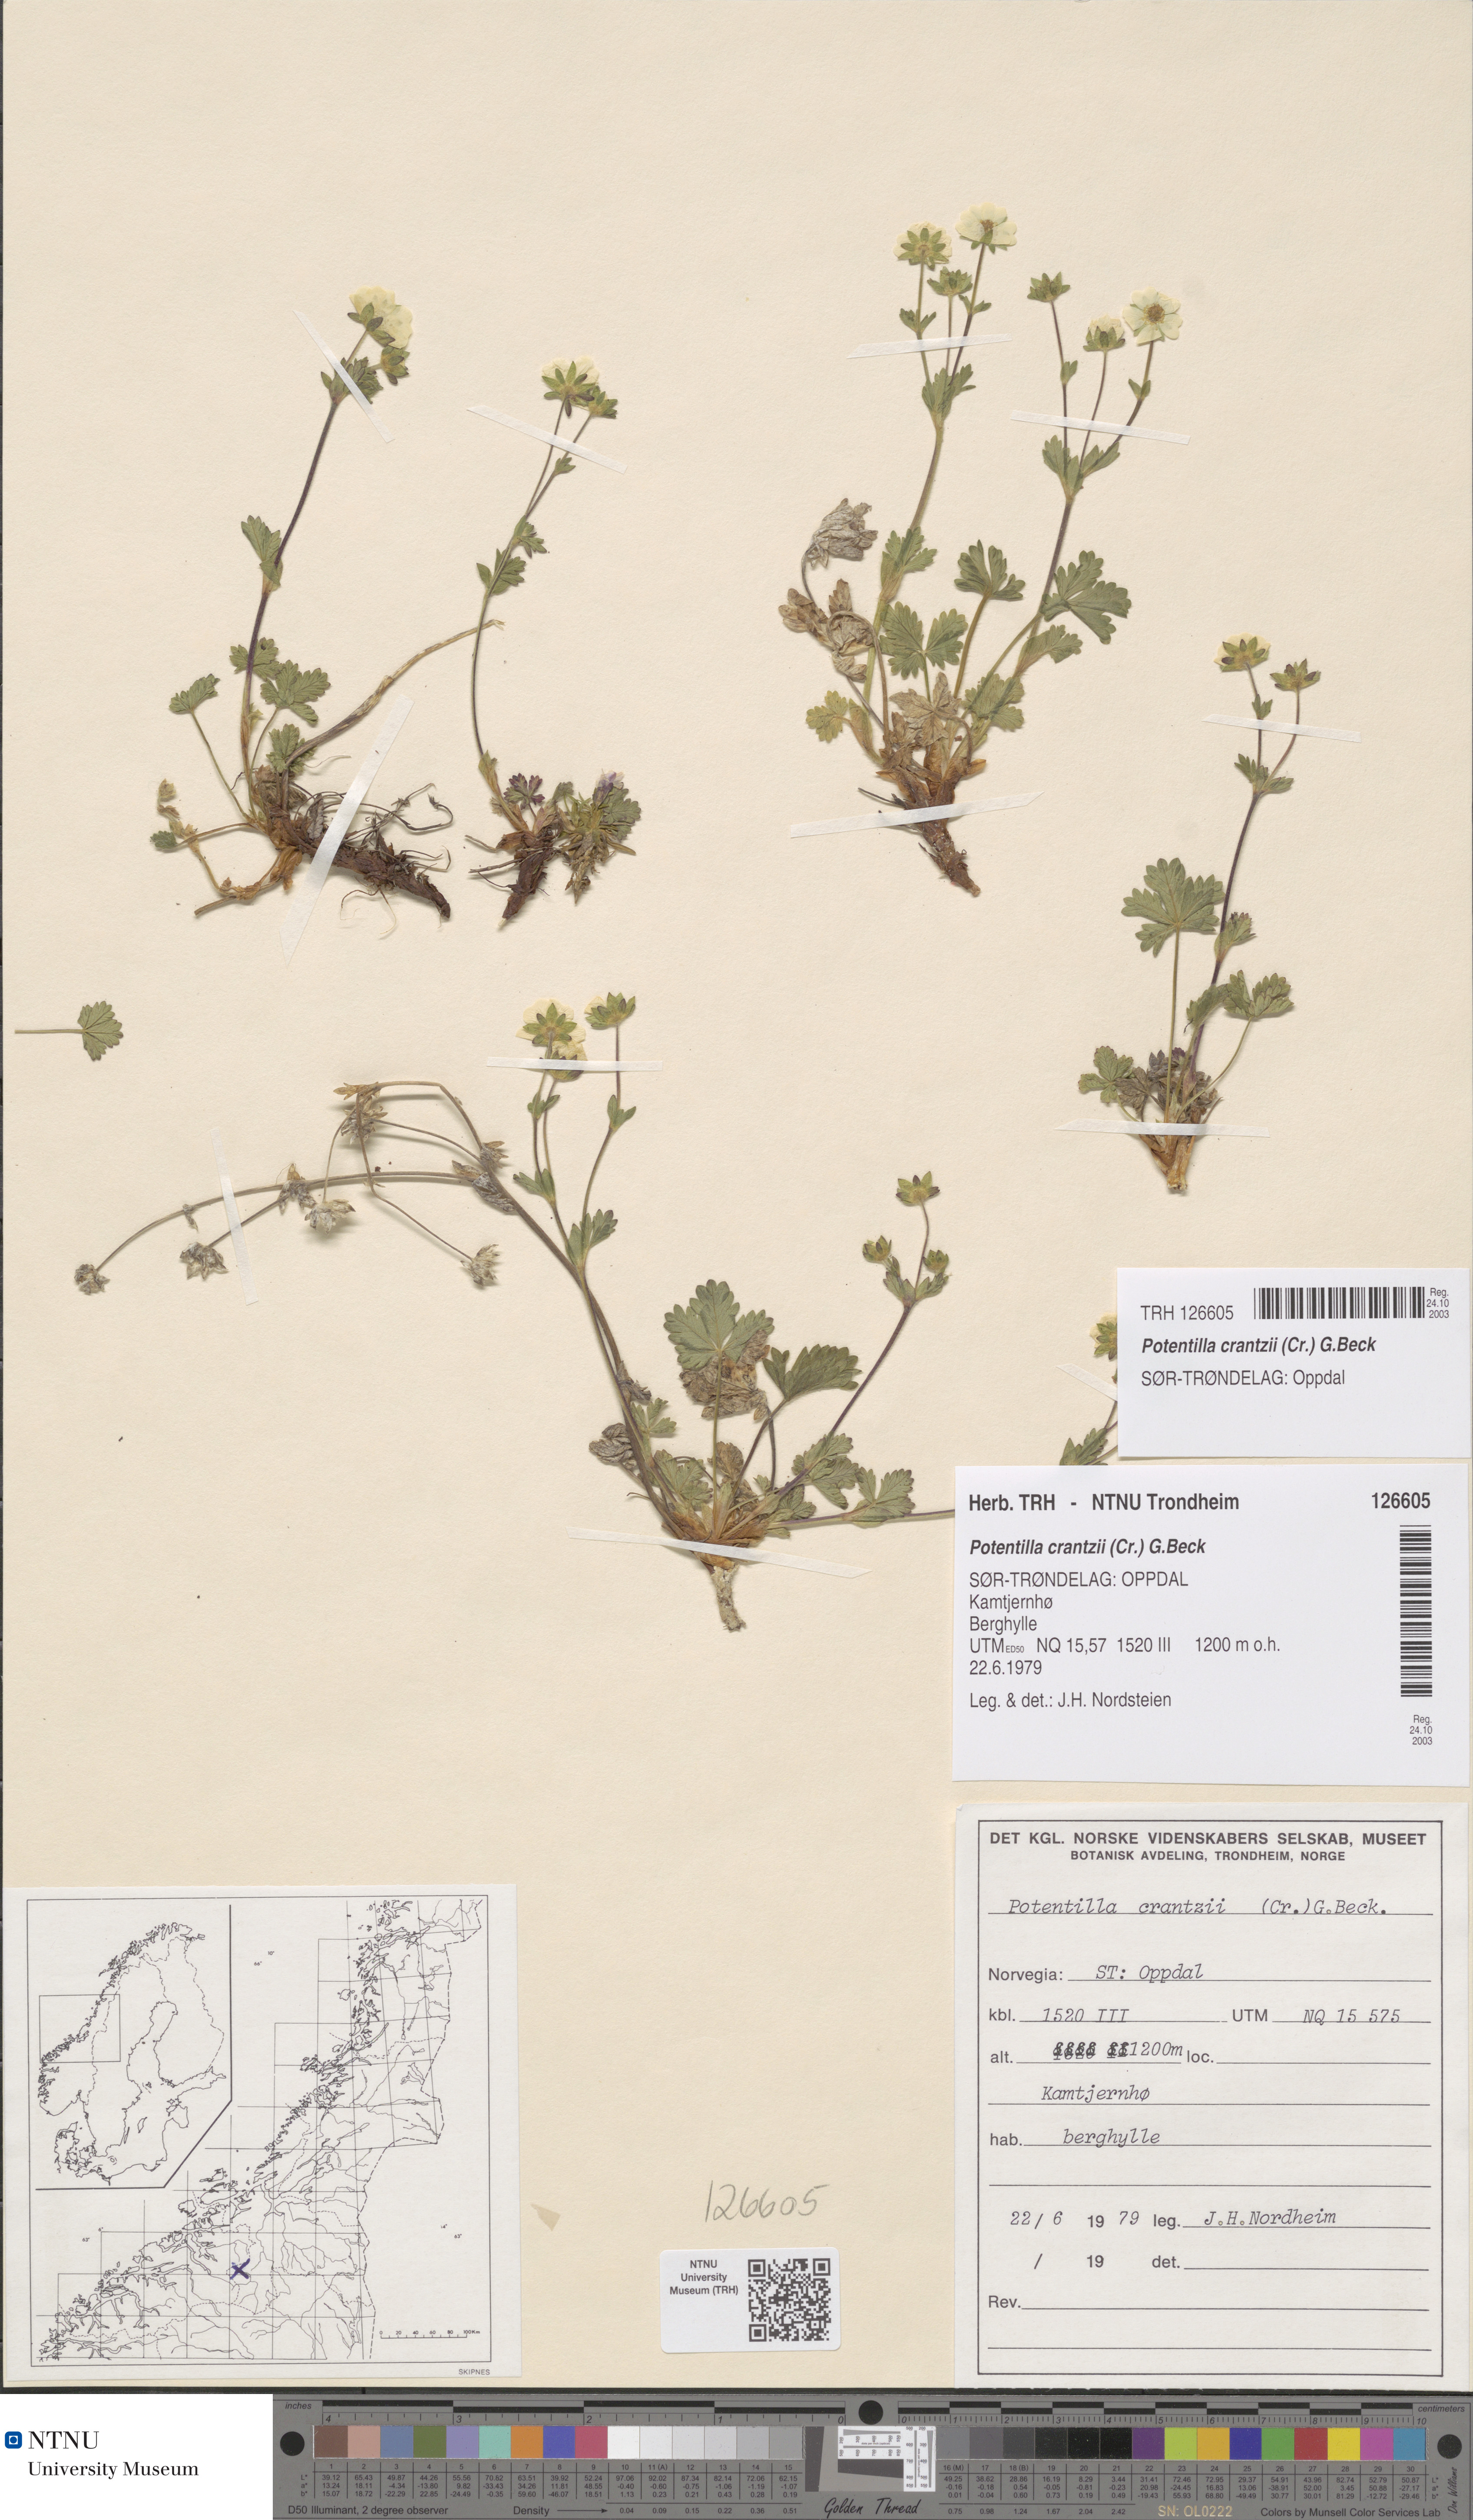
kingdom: Plantae
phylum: Tracheophyta
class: Magnoliopsida
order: Rosales
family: Rosaceae
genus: Potentilla
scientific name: Potentilla crantzii
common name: Alpine cinquefoil
